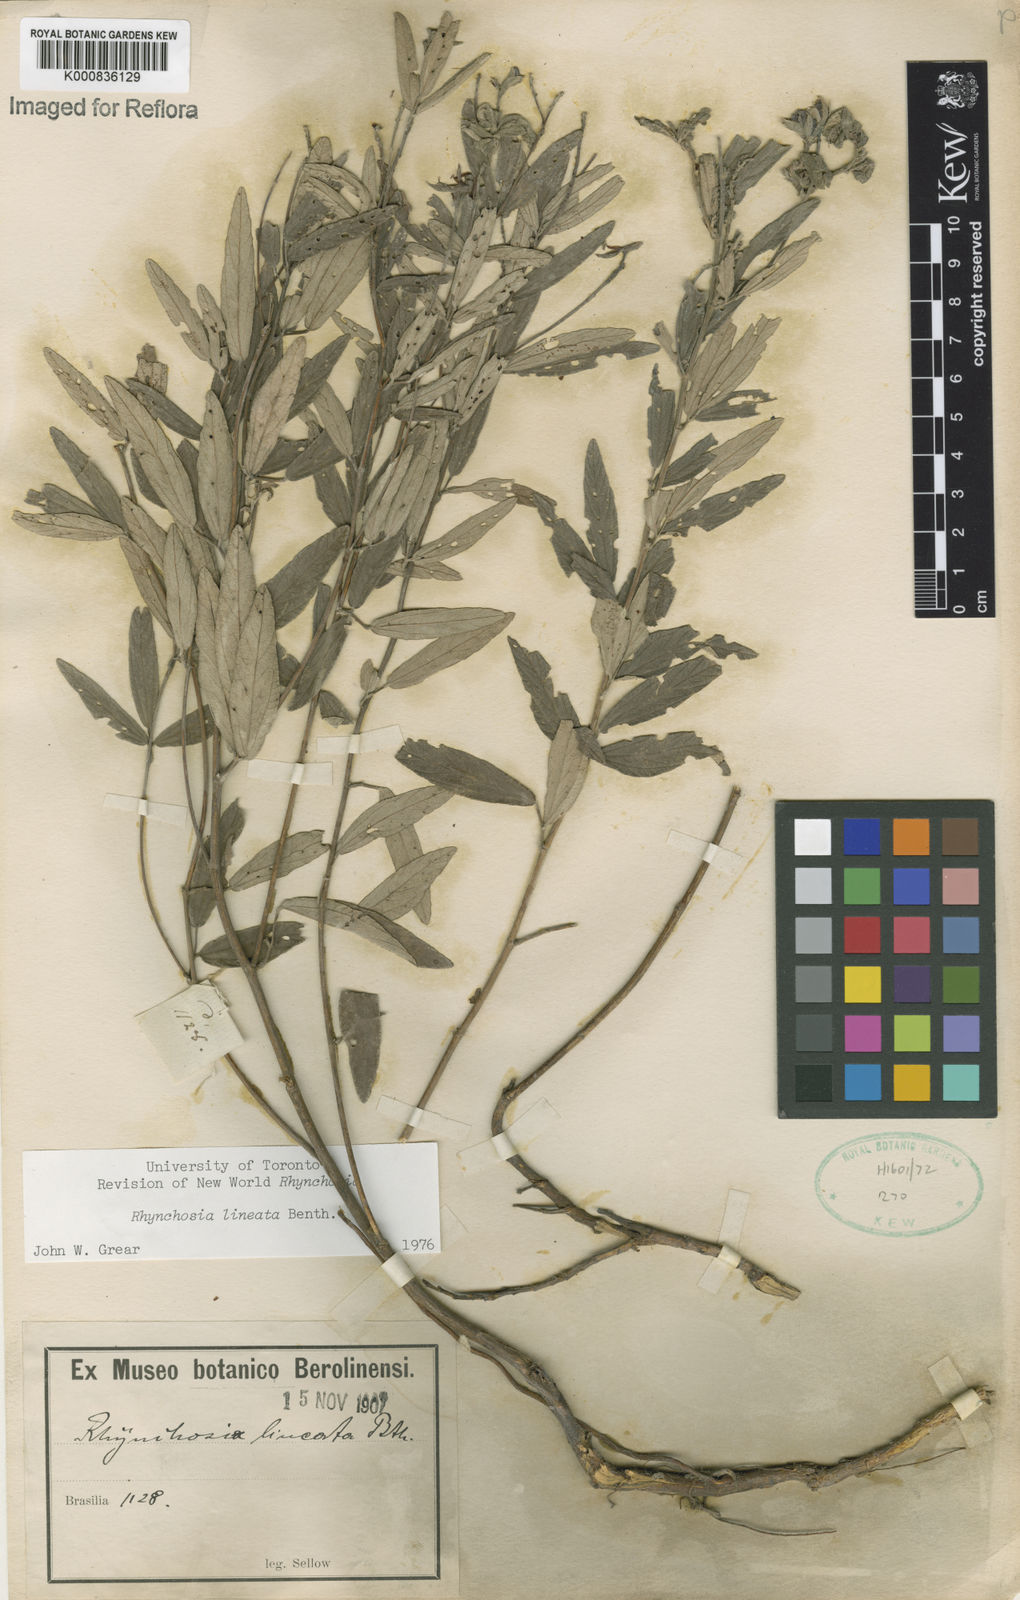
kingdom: Plantae
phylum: Tracheophyta
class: Magnoliopsida
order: Fabales
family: Fabaceae
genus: Rhynchosia
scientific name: Rhynchosia lineata
